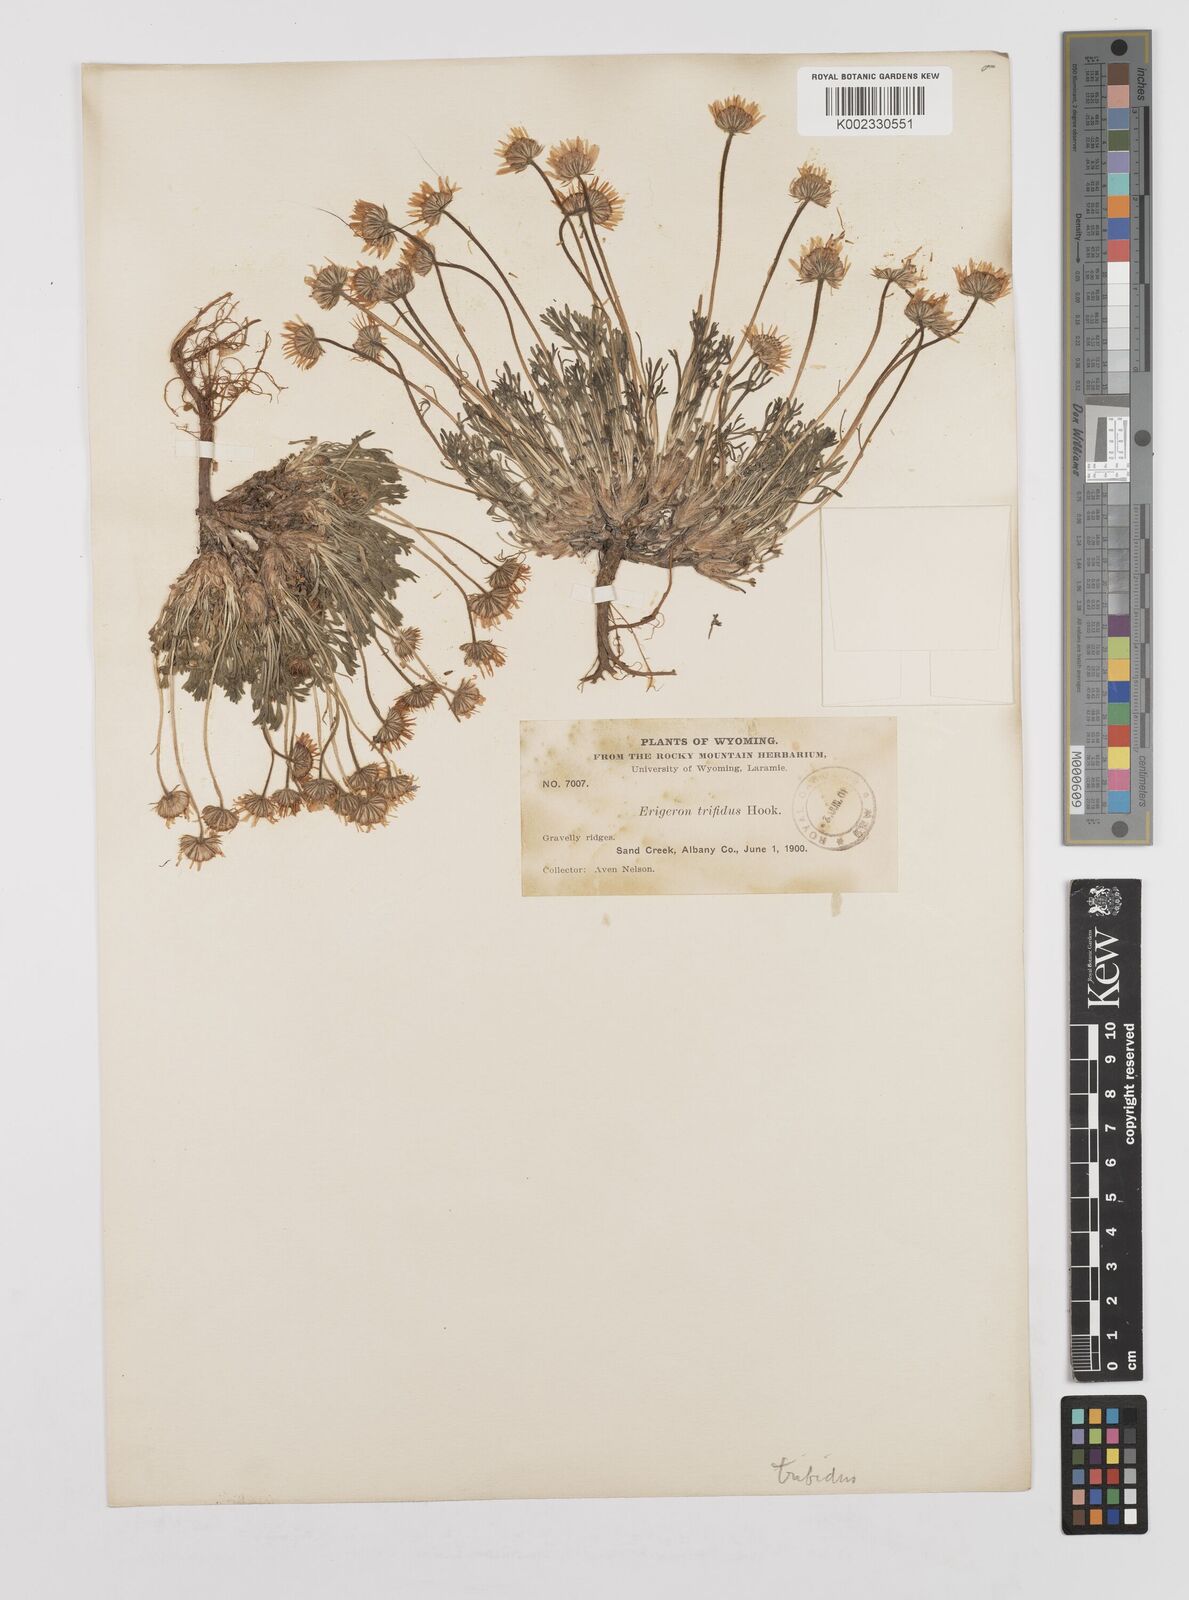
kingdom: Plantae
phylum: Tracheophyta
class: Magnoliopsida
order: Asterales
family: Asteraceae
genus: Erigeron
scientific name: Erigeron trifidus
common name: Alberta fleabane
